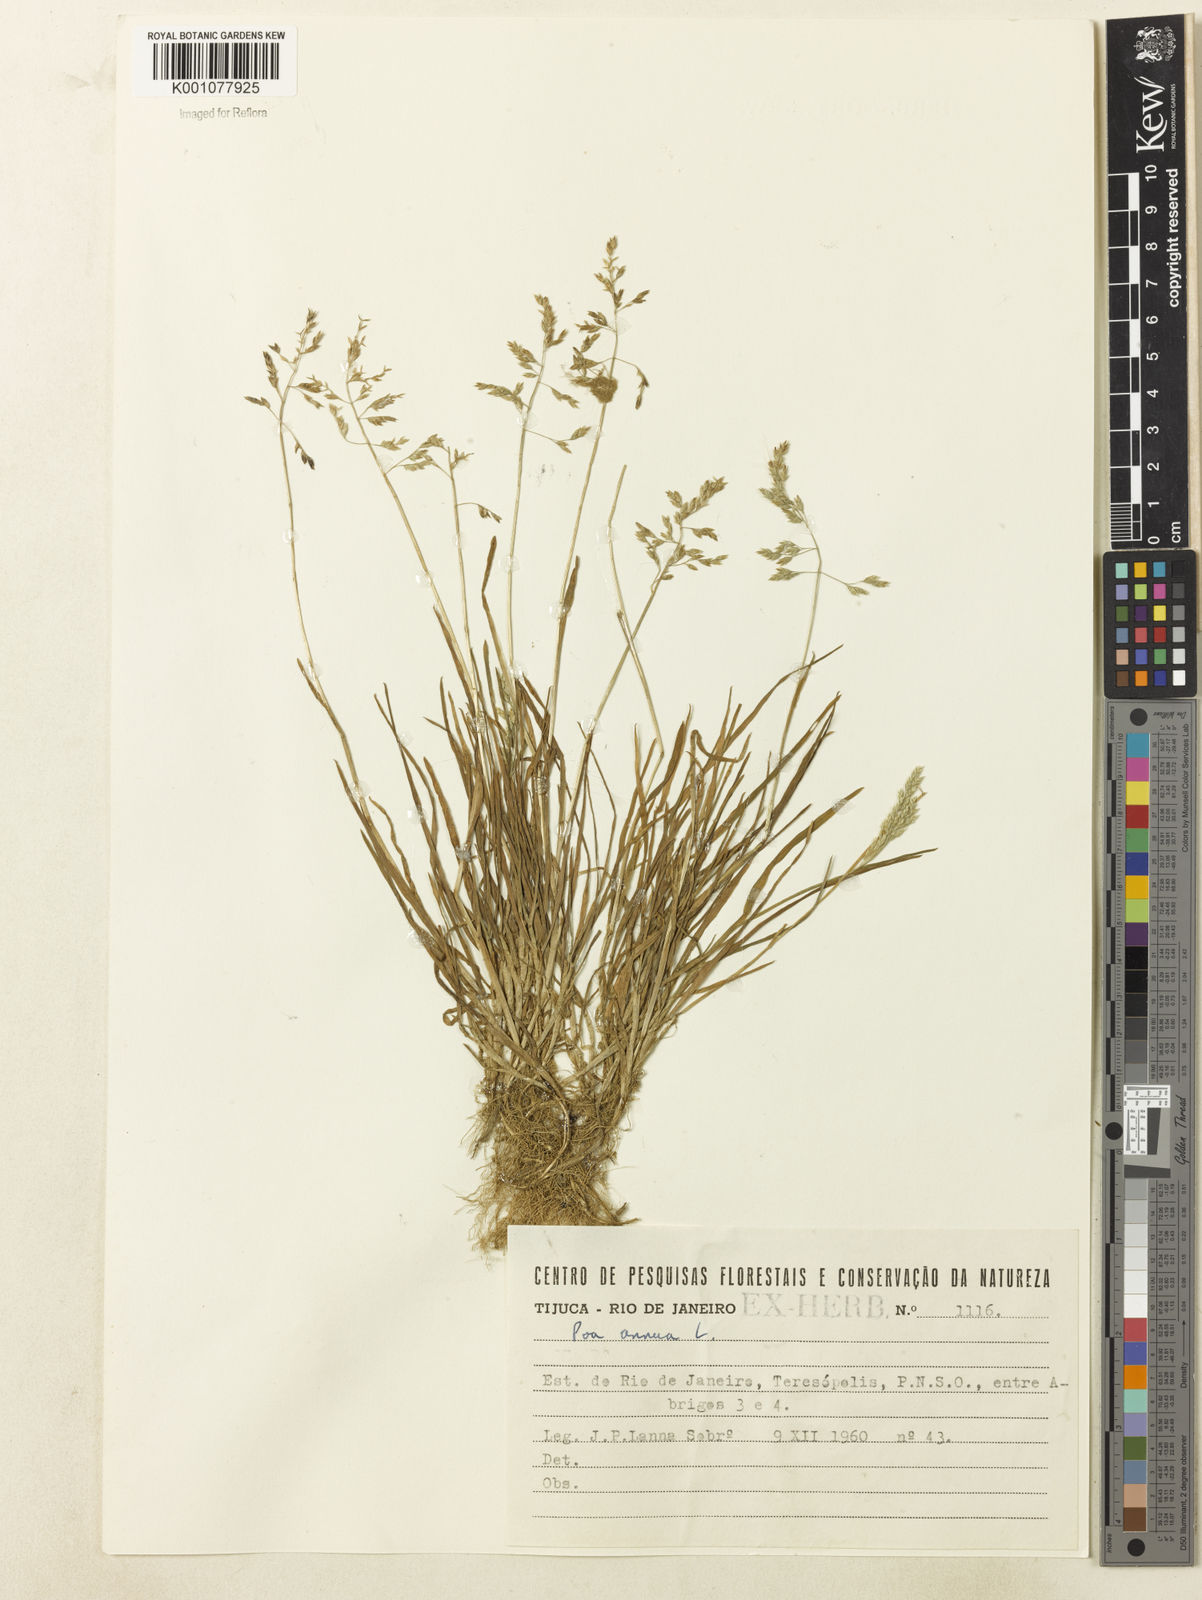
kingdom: Plantae
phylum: Tracheophyta
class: Liliopsida
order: Poales
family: Poaceae
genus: Poa
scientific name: Poa annua
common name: Annual bluegrass
